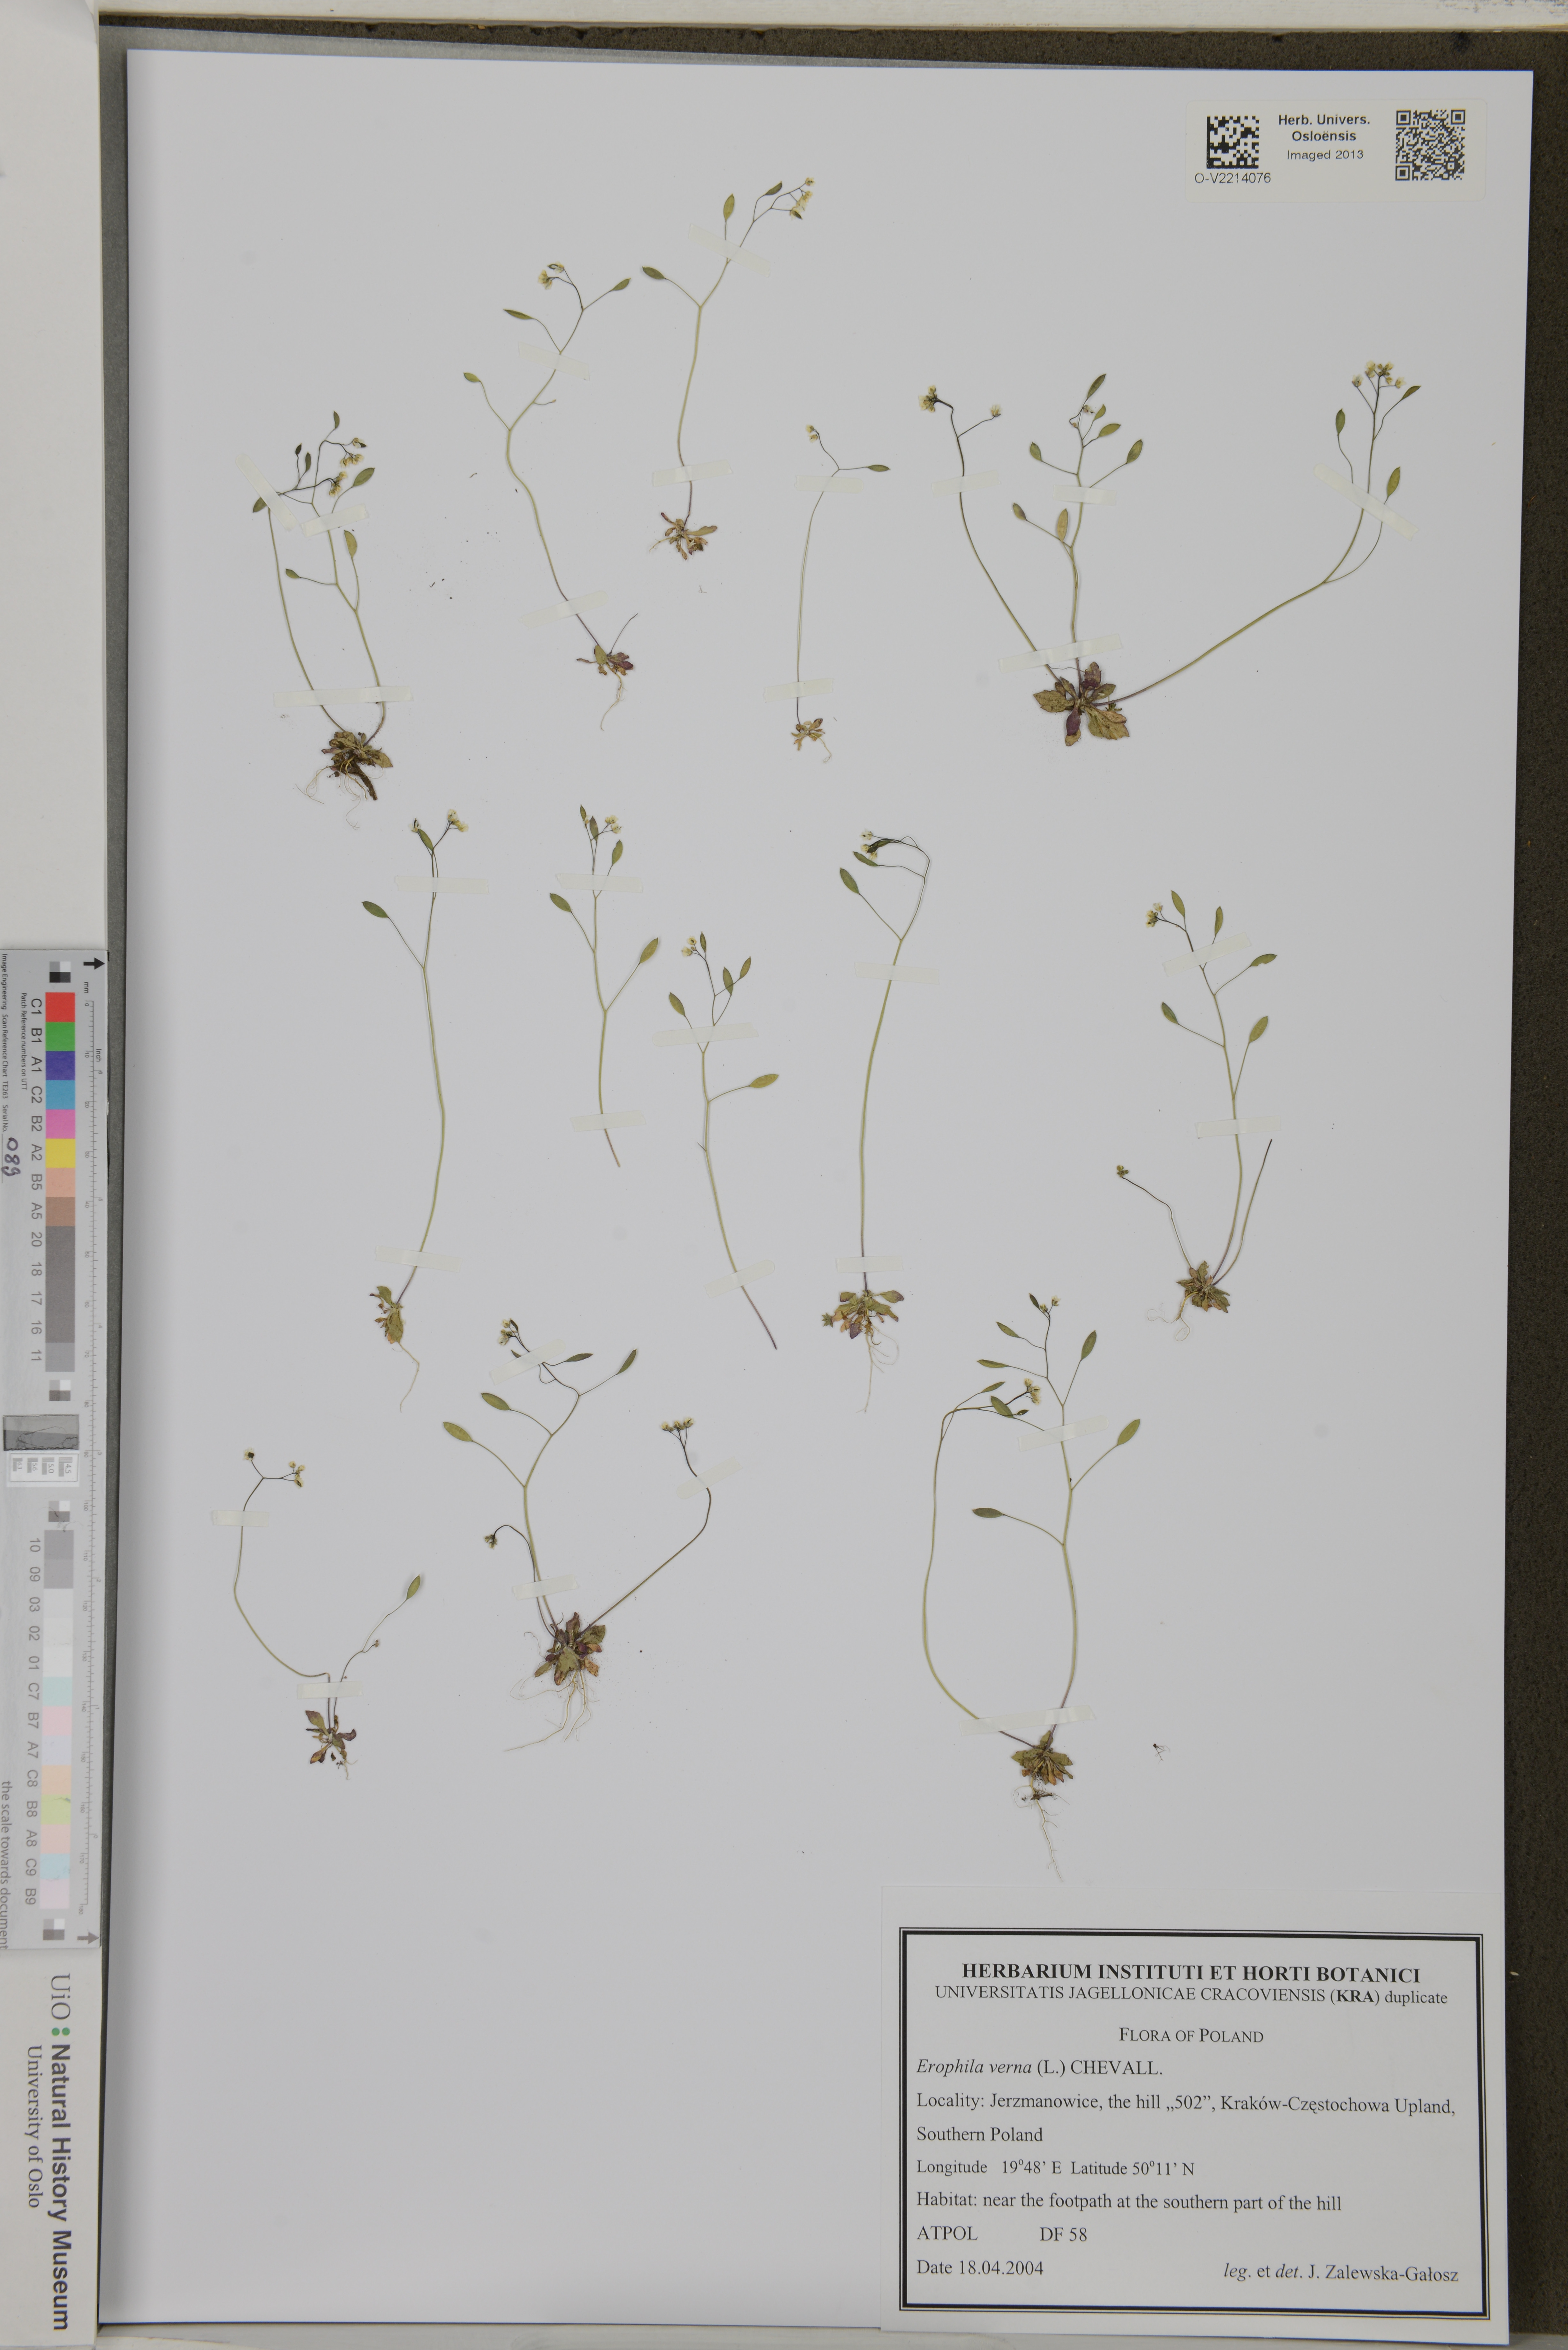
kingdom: Plantae
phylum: Tracheophyta
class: Magnoliopsida
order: Brassicales
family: Brassicaceae
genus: Draba
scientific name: Draba
